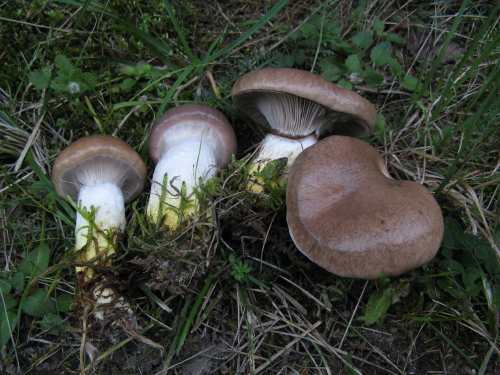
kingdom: Fungi
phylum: Basidiomycota
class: Agaricomycetes
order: Boletales
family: Gomphidiaceae
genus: Gomphidius
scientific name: Gomphidius glutinosus
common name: grå slimslør
